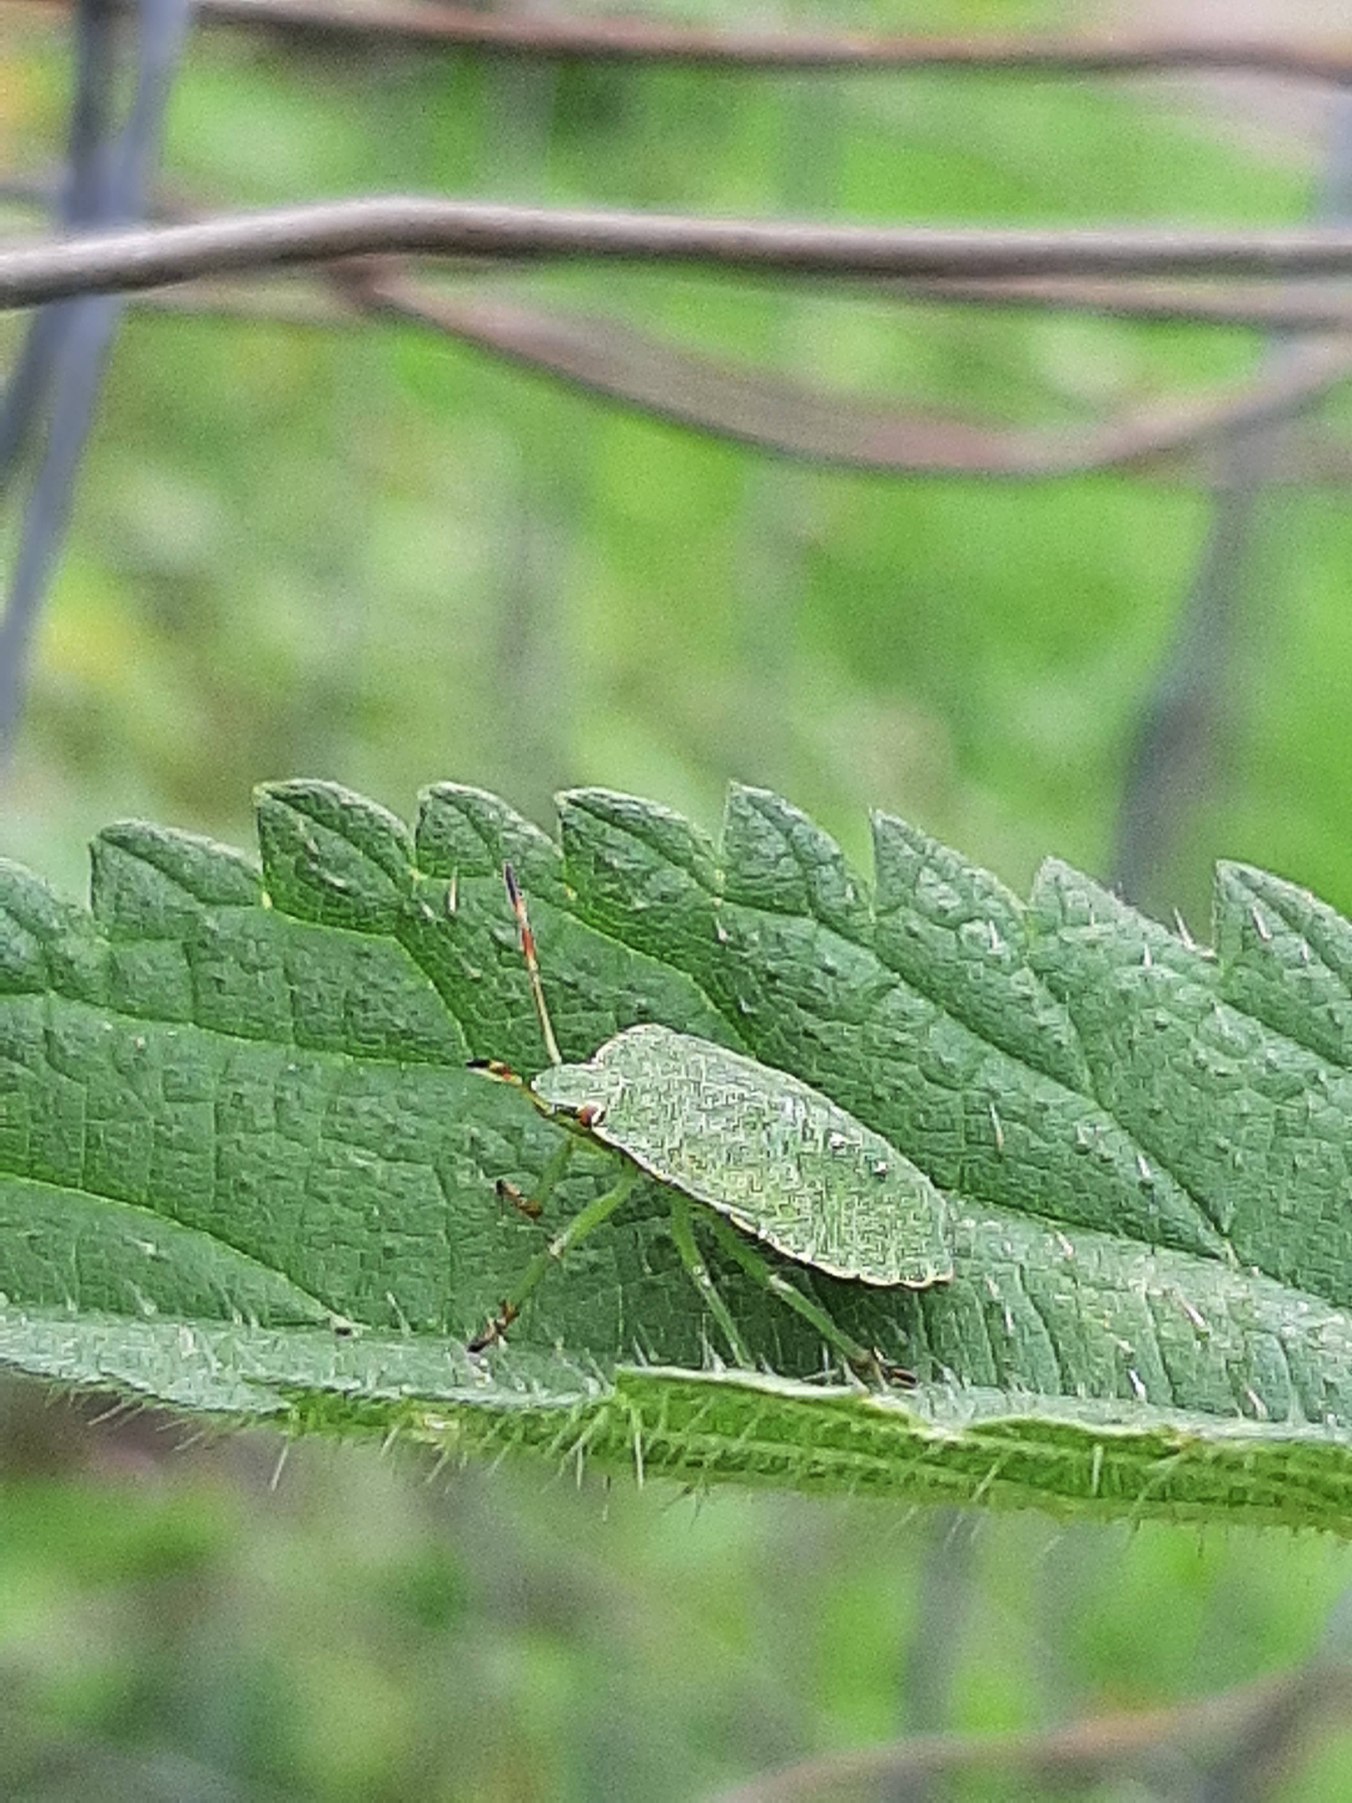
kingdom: Animalia
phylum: Arthropoda
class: Insecta
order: Hemiptera
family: Pentatomidae
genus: Palomena
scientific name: Palomena prasina
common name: Grøn bredtæge
